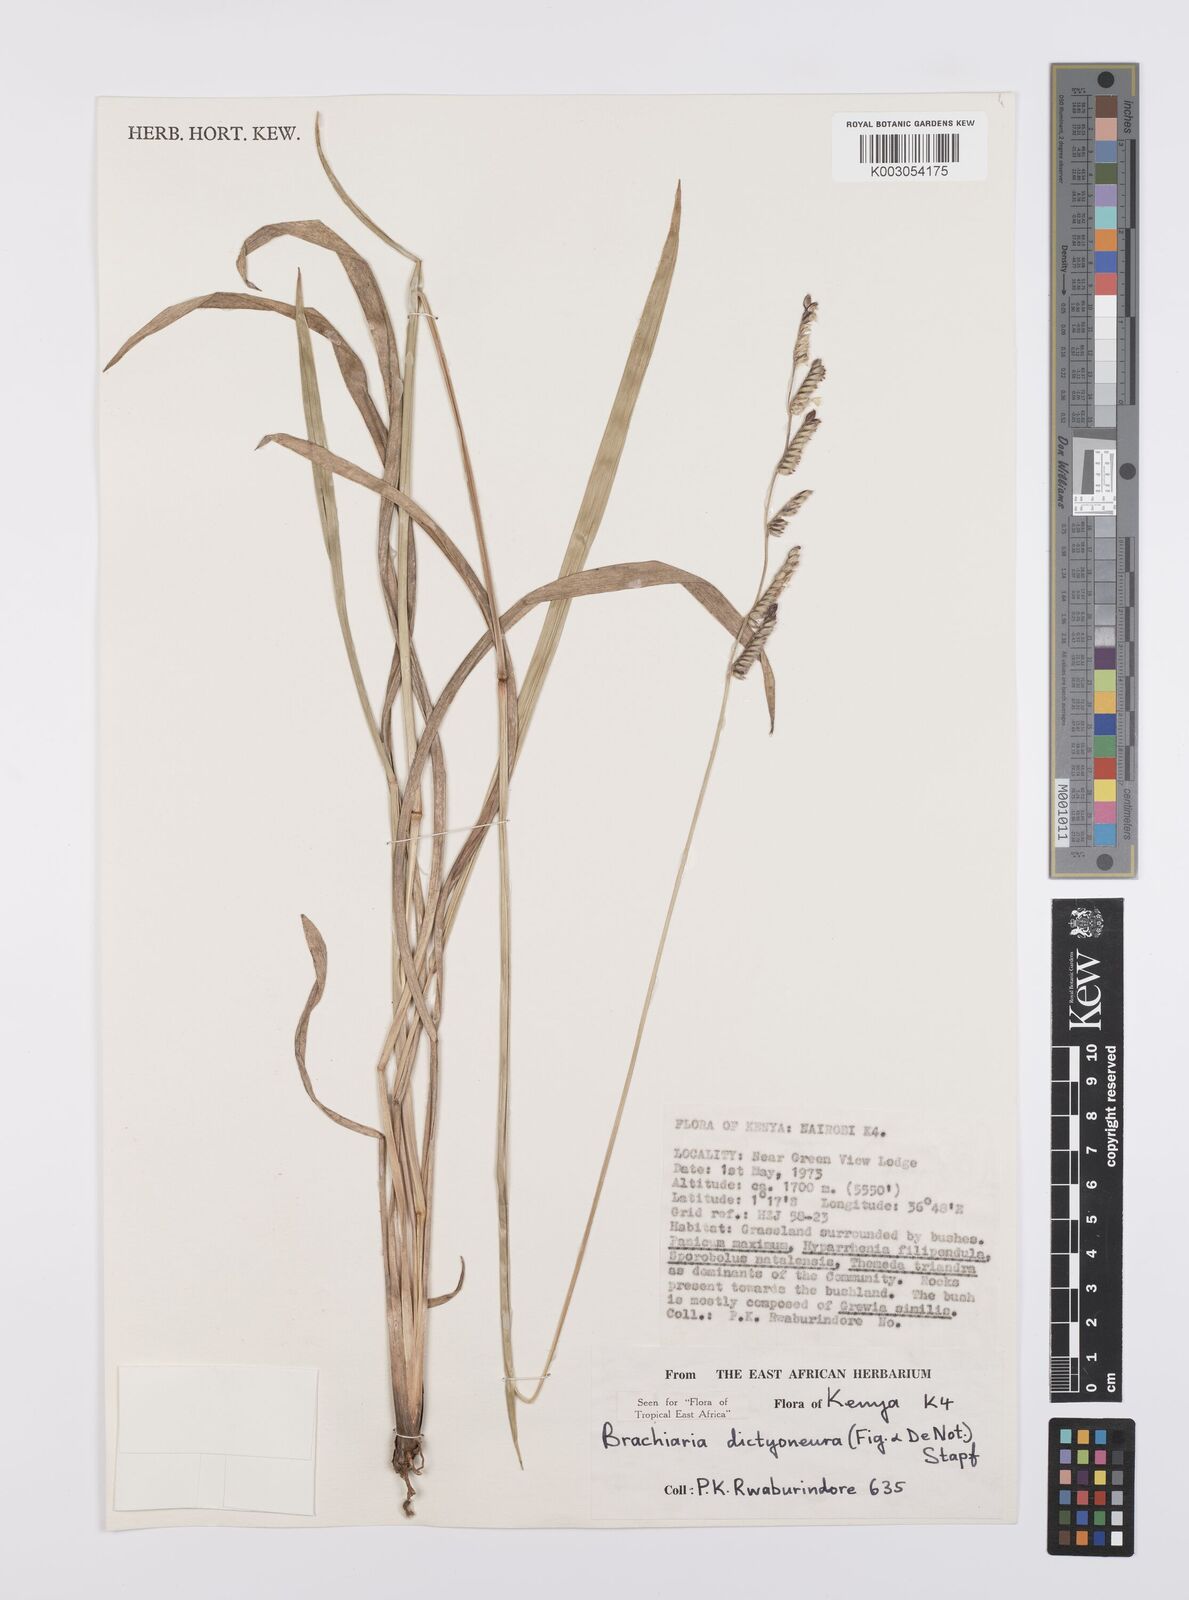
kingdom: Plantae
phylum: Tracheophyta
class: Liliopsida
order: Poales
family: Poaceae
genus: Urochloa
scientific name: Urochloa dictyoneura
